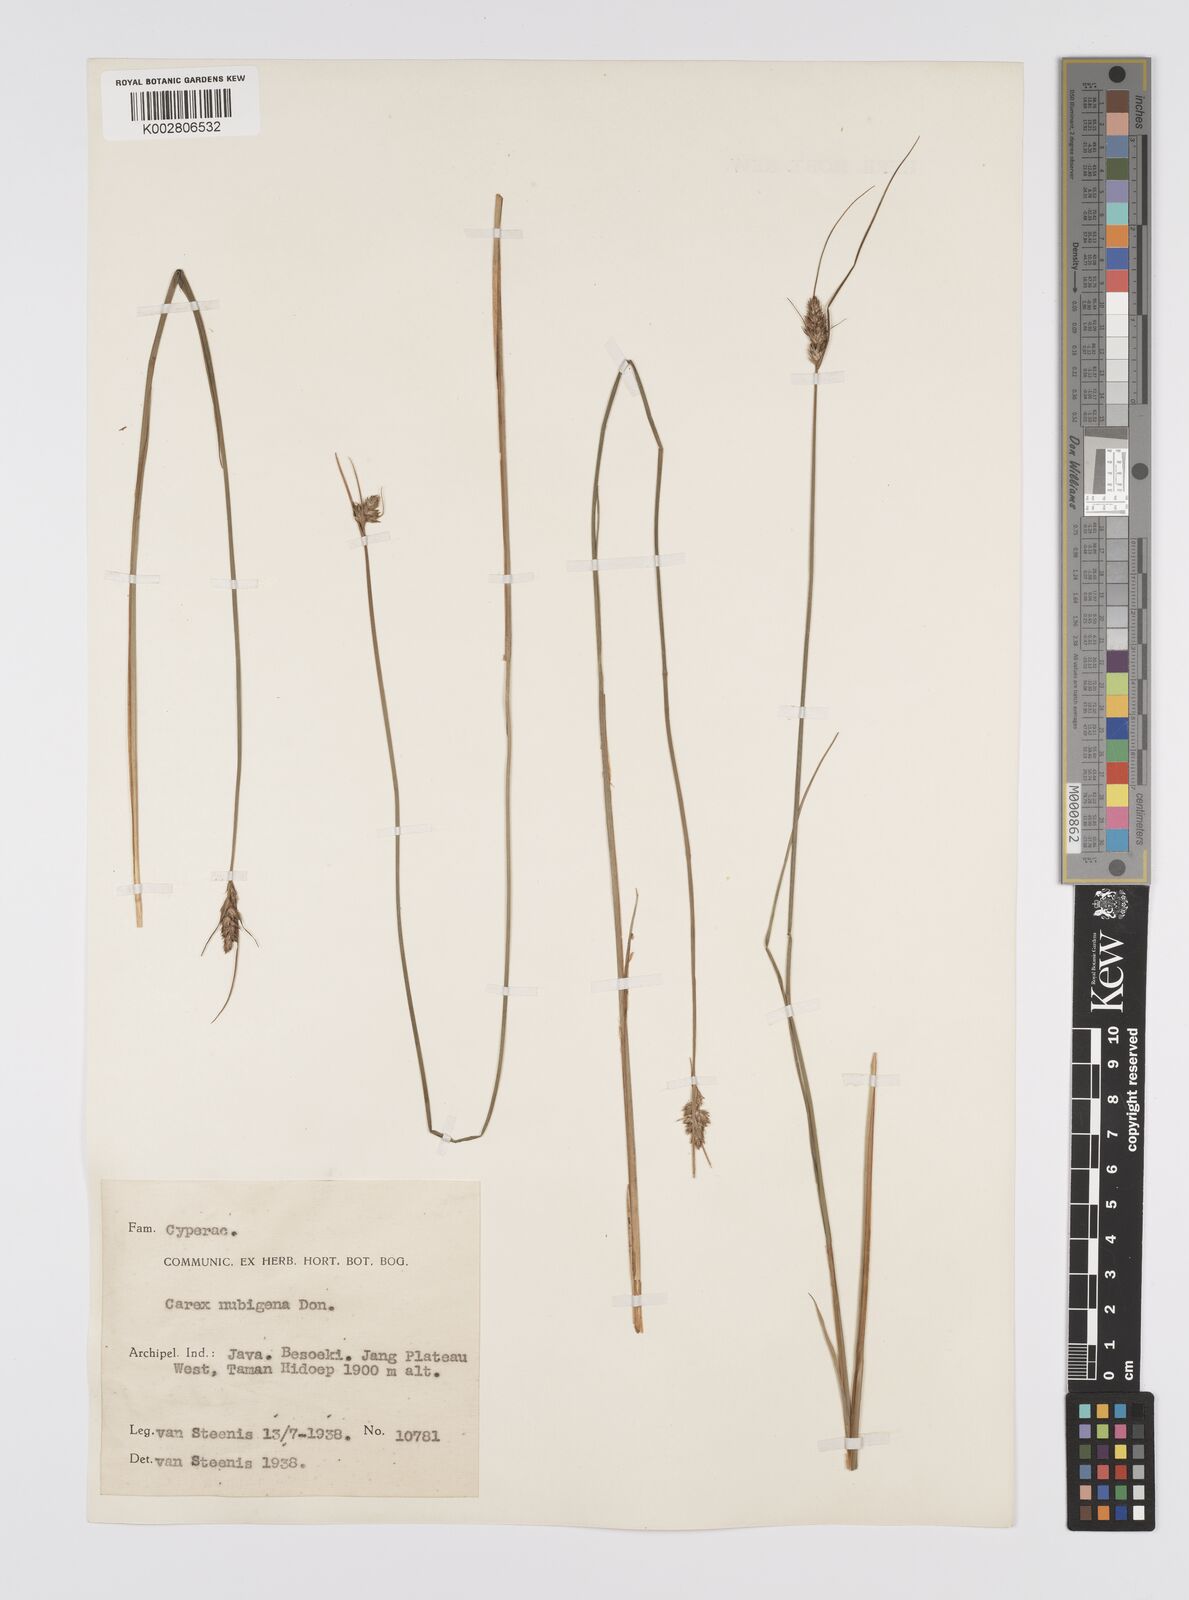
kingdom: Plantae
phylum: Tracheophyta
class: Liliopsida
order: Poales
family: Cyperaceae
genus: Carex
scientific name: Carex
